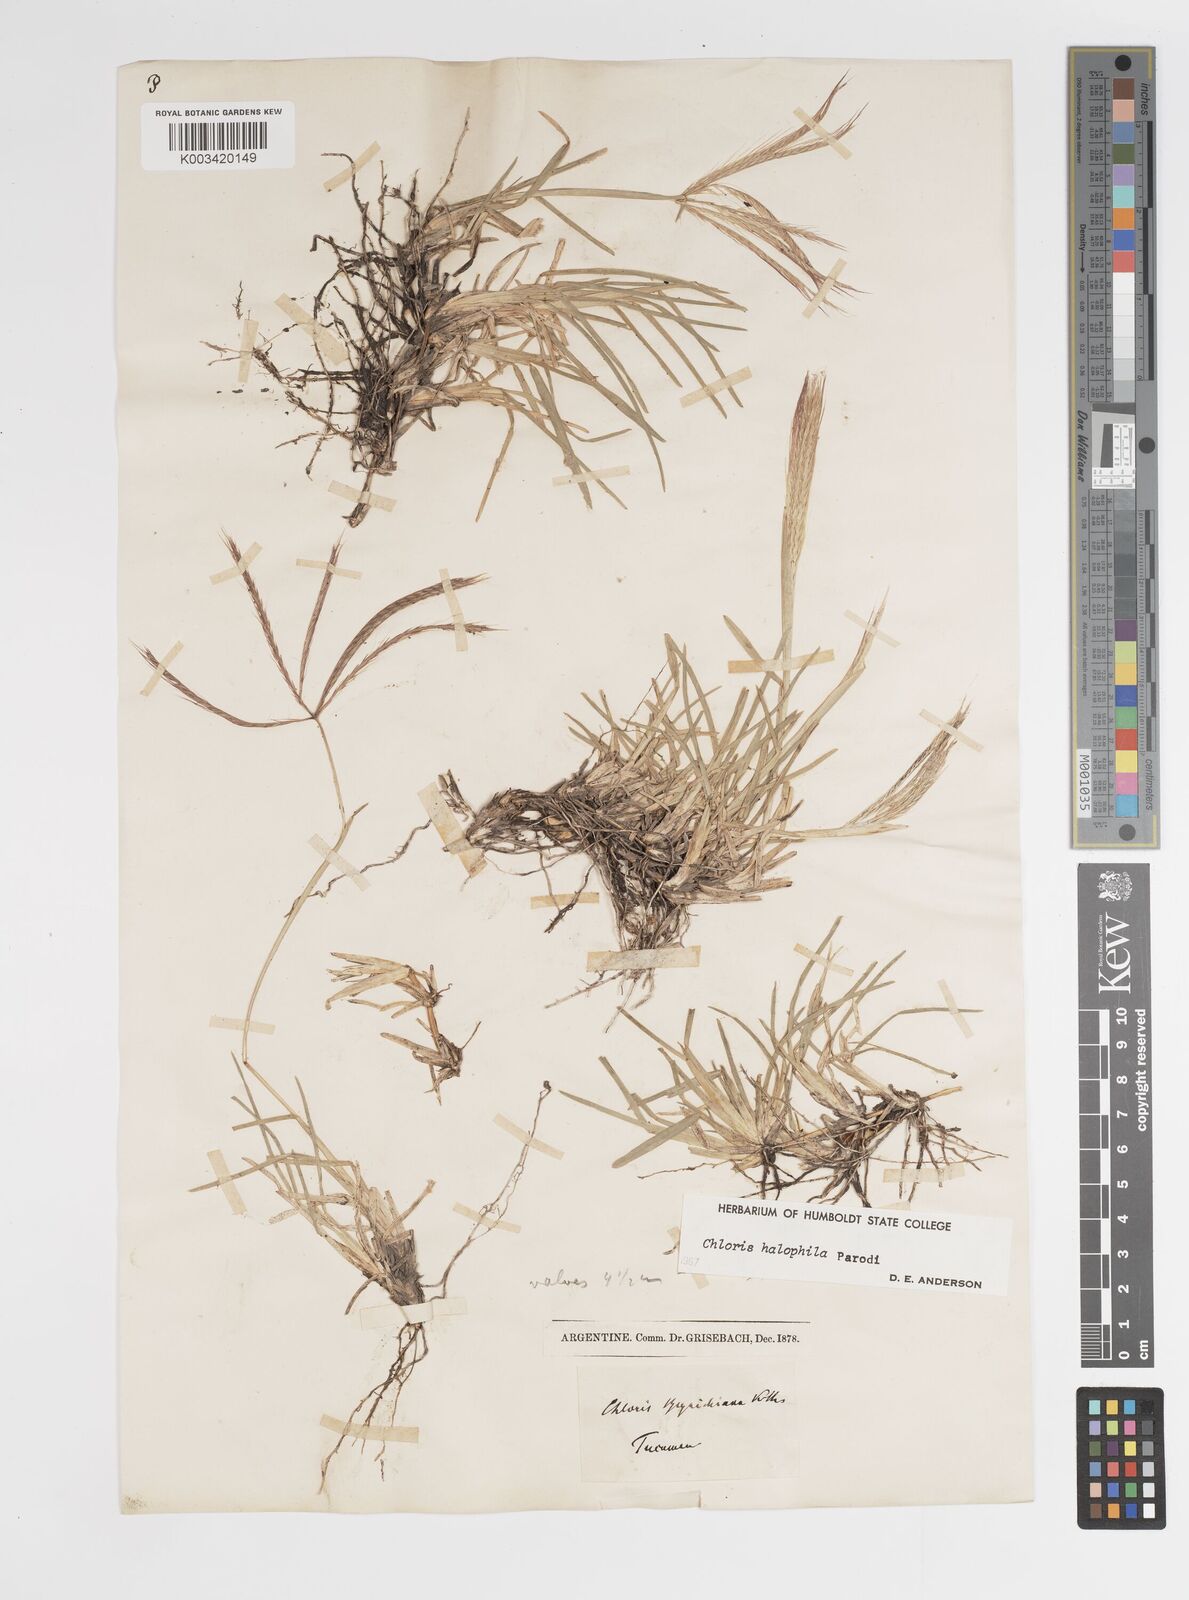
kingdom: Plantae
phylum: Tracheophyta
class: Liliopsida
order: Poales
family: Poaceae
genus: Chloris
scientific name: Chloris halophila
